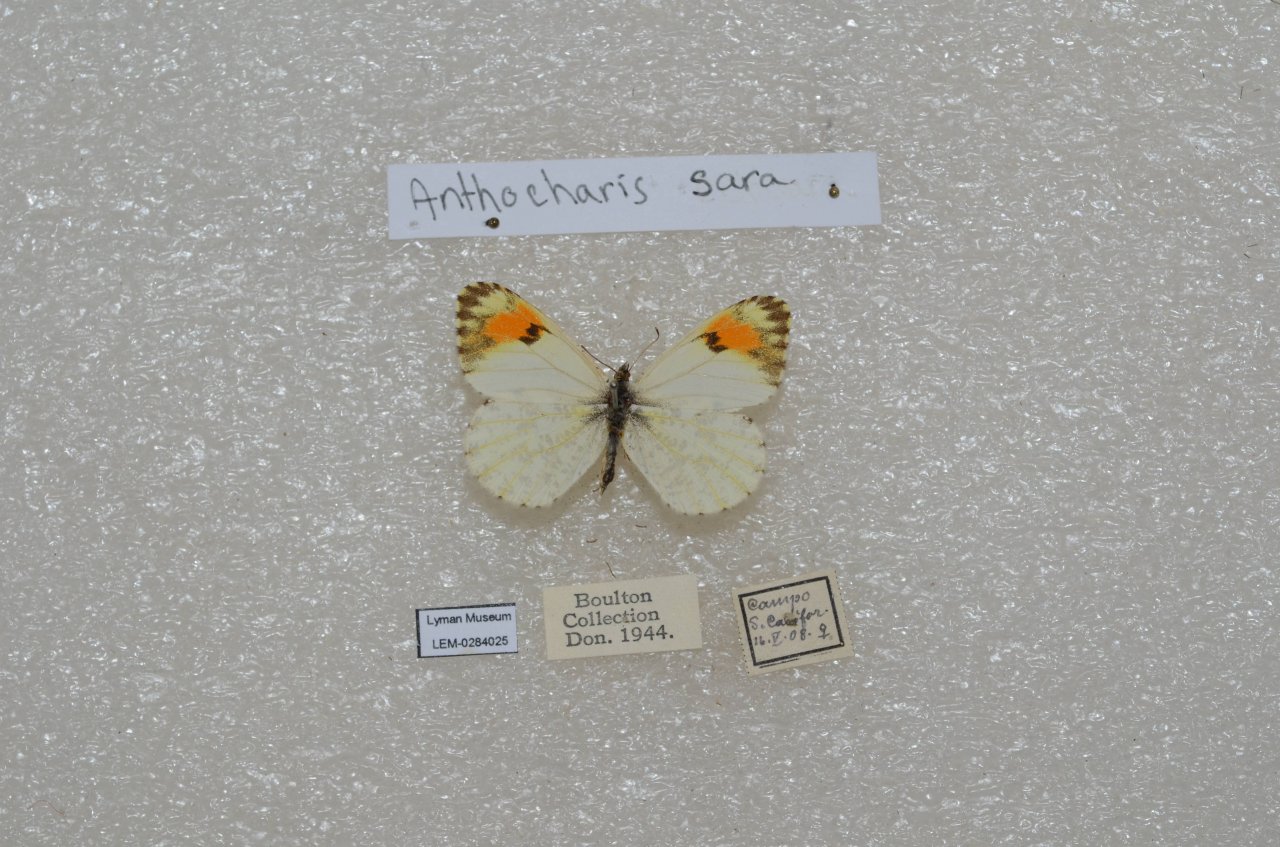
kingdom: Animalia
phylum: Arthropoda
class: Insecta
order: Lepidoptera
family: Pieridae
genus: Anthocharis
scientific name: Anthocharis sara
